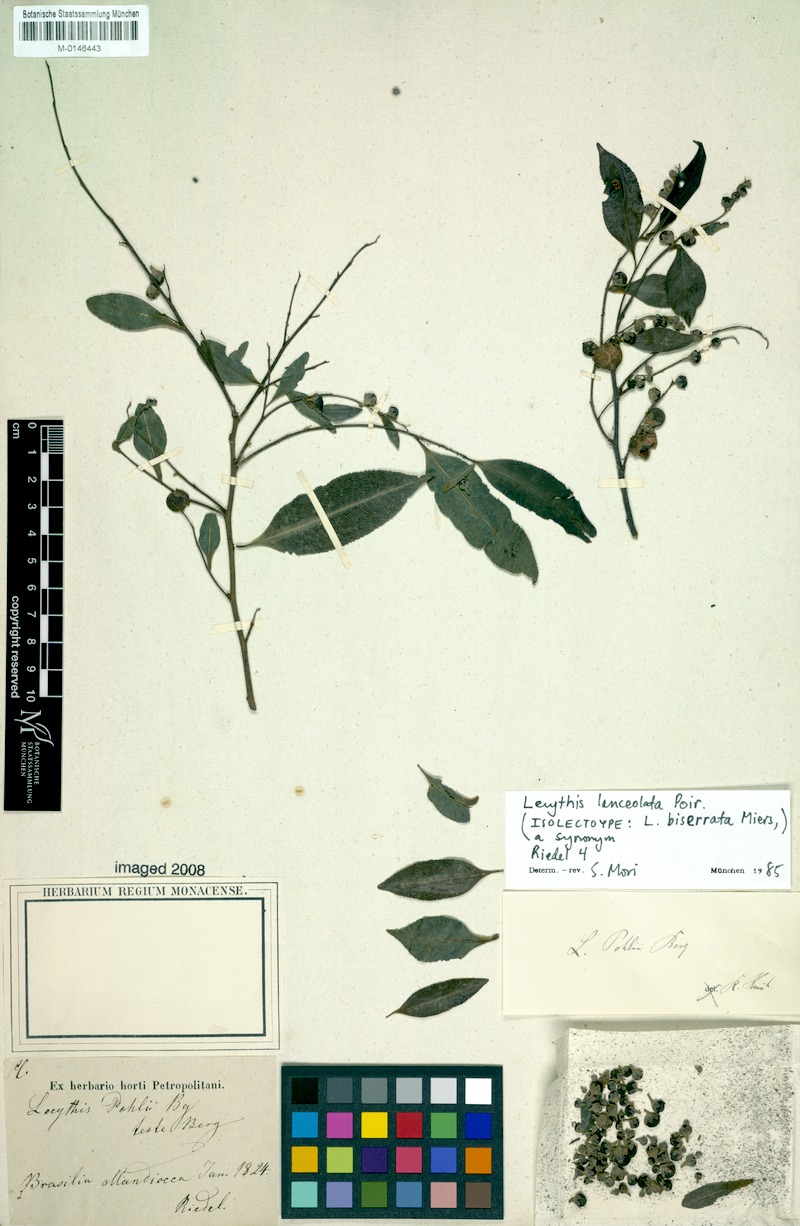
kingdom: Plantae
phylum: Tracheophyta
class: Magnoliopsida
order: Ericales
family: Lecythidaceae
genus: Lecythis
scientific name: Lecythis lanceolata
